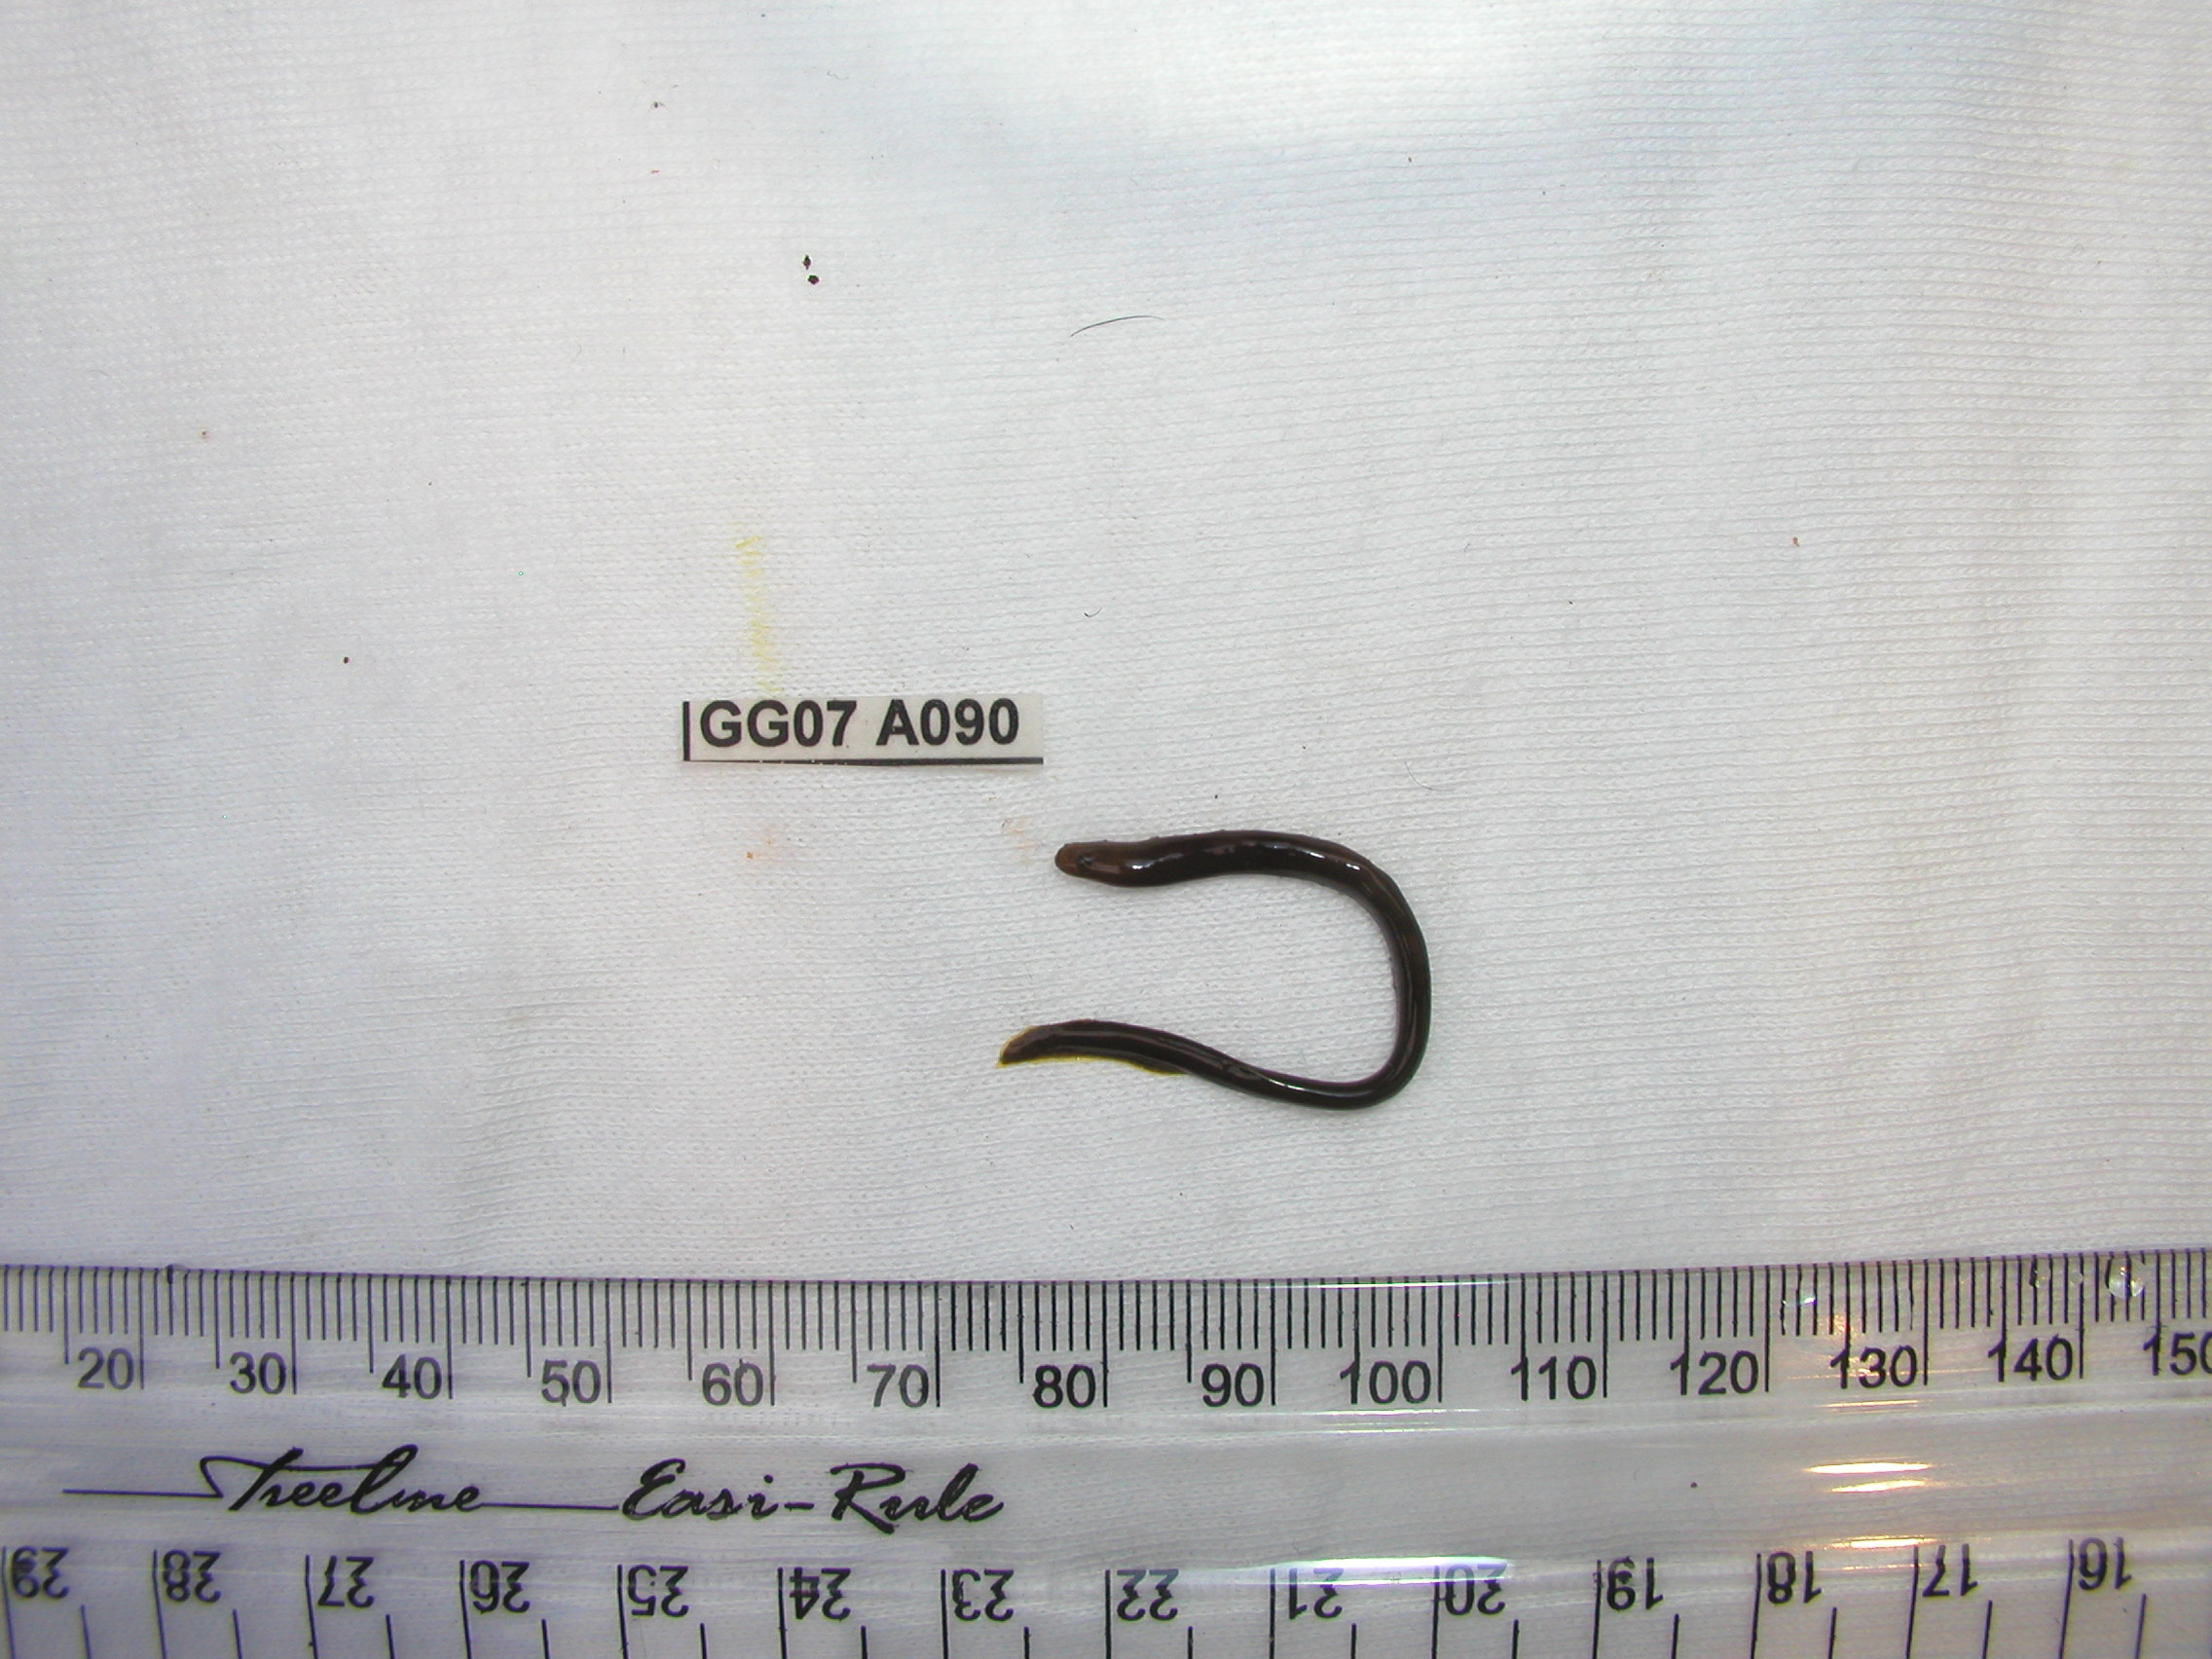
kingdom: Animalia
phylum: Chordata
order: Anguilliformes
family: Muraenidae
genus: Gymnothorax
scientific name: Gymnothorax flavimarginatus
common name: Yellow-edged moray
